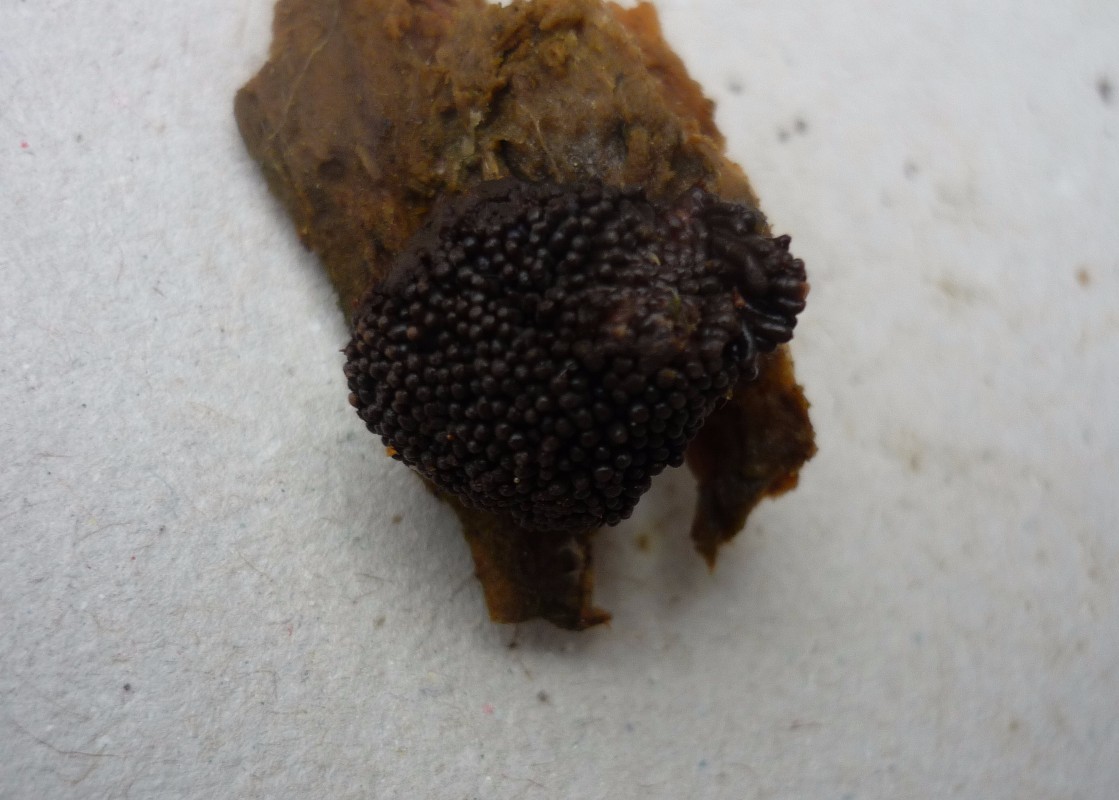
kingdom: Protozoa
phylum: Mycetozoa
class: Myxomycetes
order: Cribrariales
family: Tubiferaceae
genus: Tubifera
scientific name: Tubifera ferruginosa
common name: kanel-støvrør
